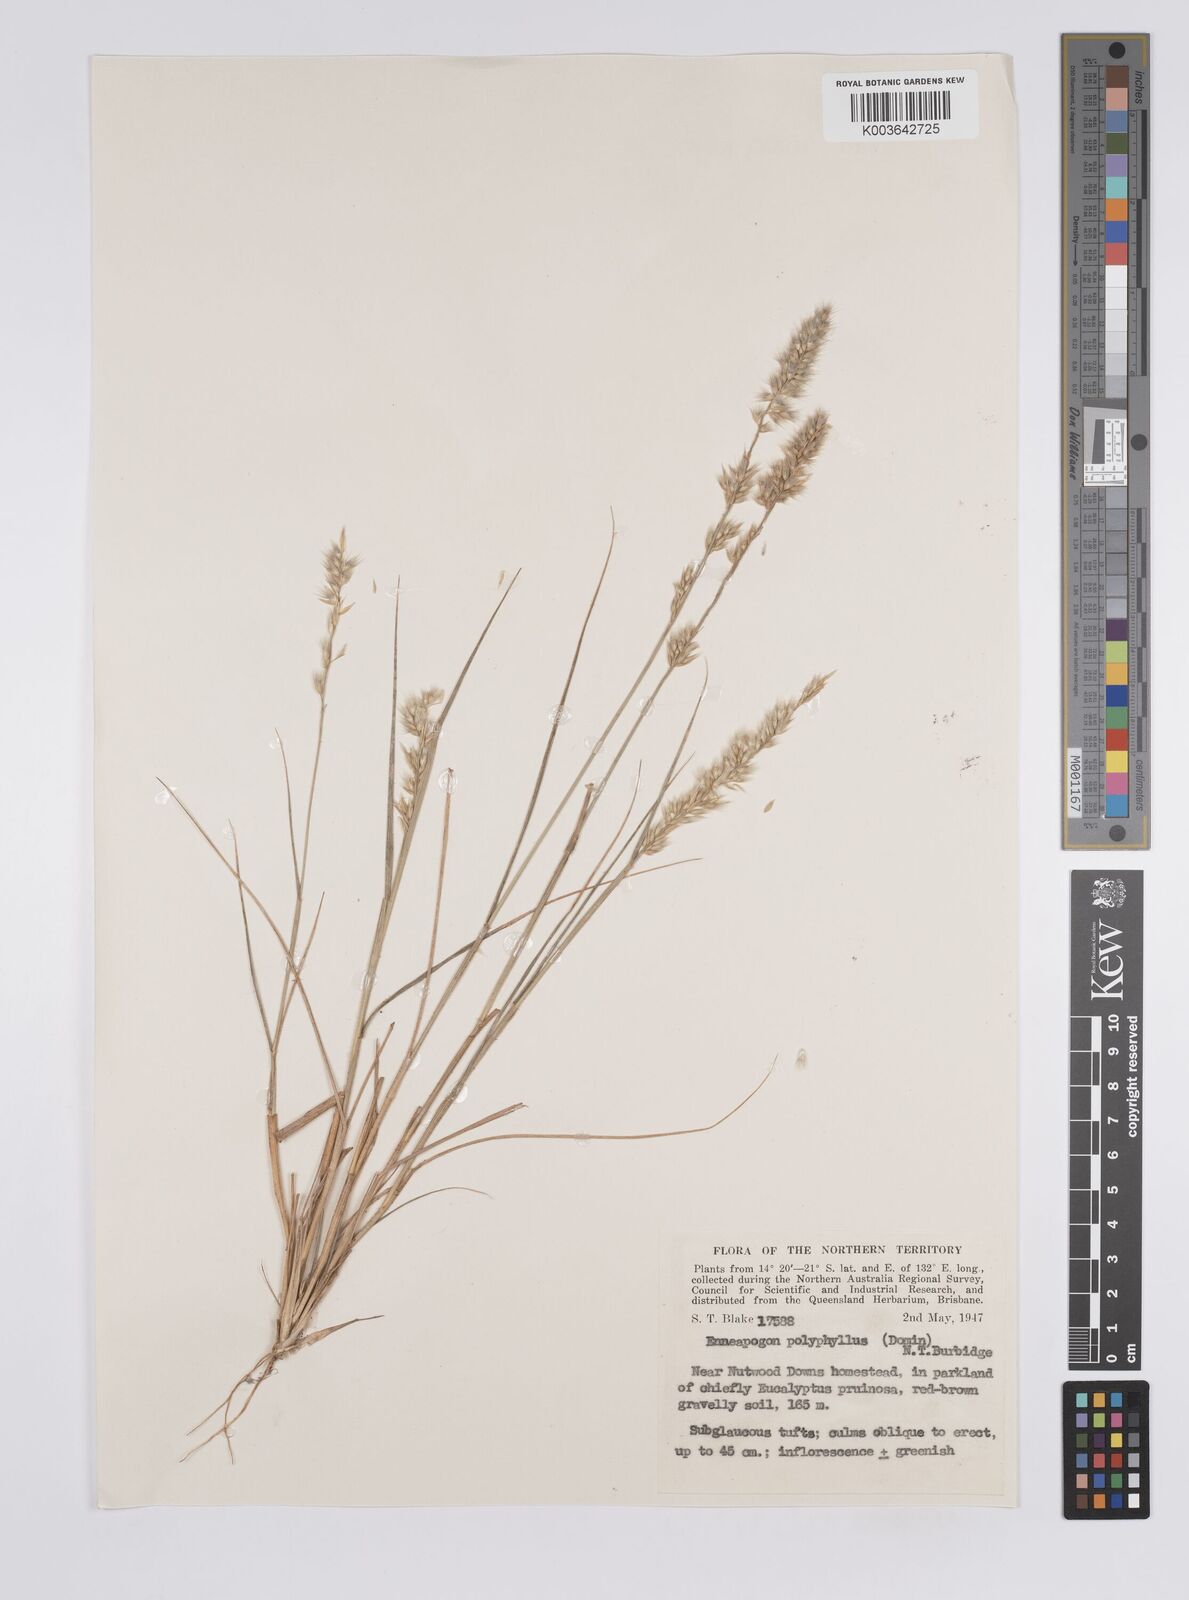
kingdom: Plantae
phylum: Tracheophyta
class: Liliopsida
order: Poales
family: Poaceae
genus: Enneapogon
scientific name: Enneapogon polyphyllus
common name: Leafy nineawn
